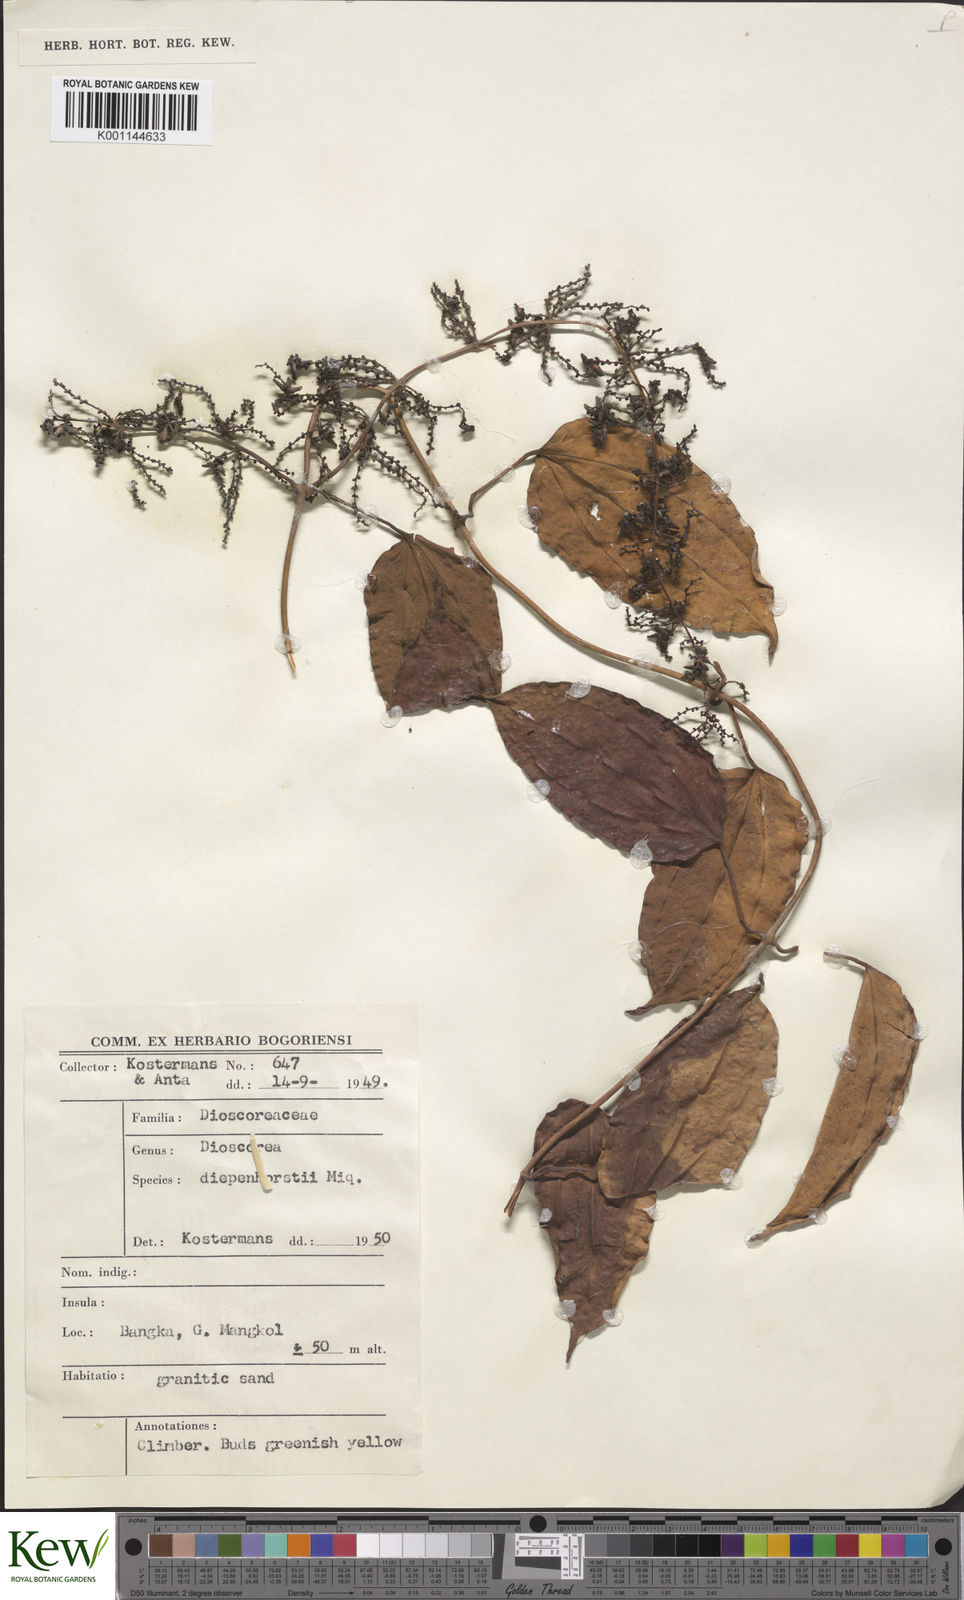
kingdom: Plantae
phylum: Tracheophyta
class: Liliopsida
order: Dioscoreales
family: Dioscoreaceae
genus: Dioscorea
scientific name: Dioscorea pyrifolia
